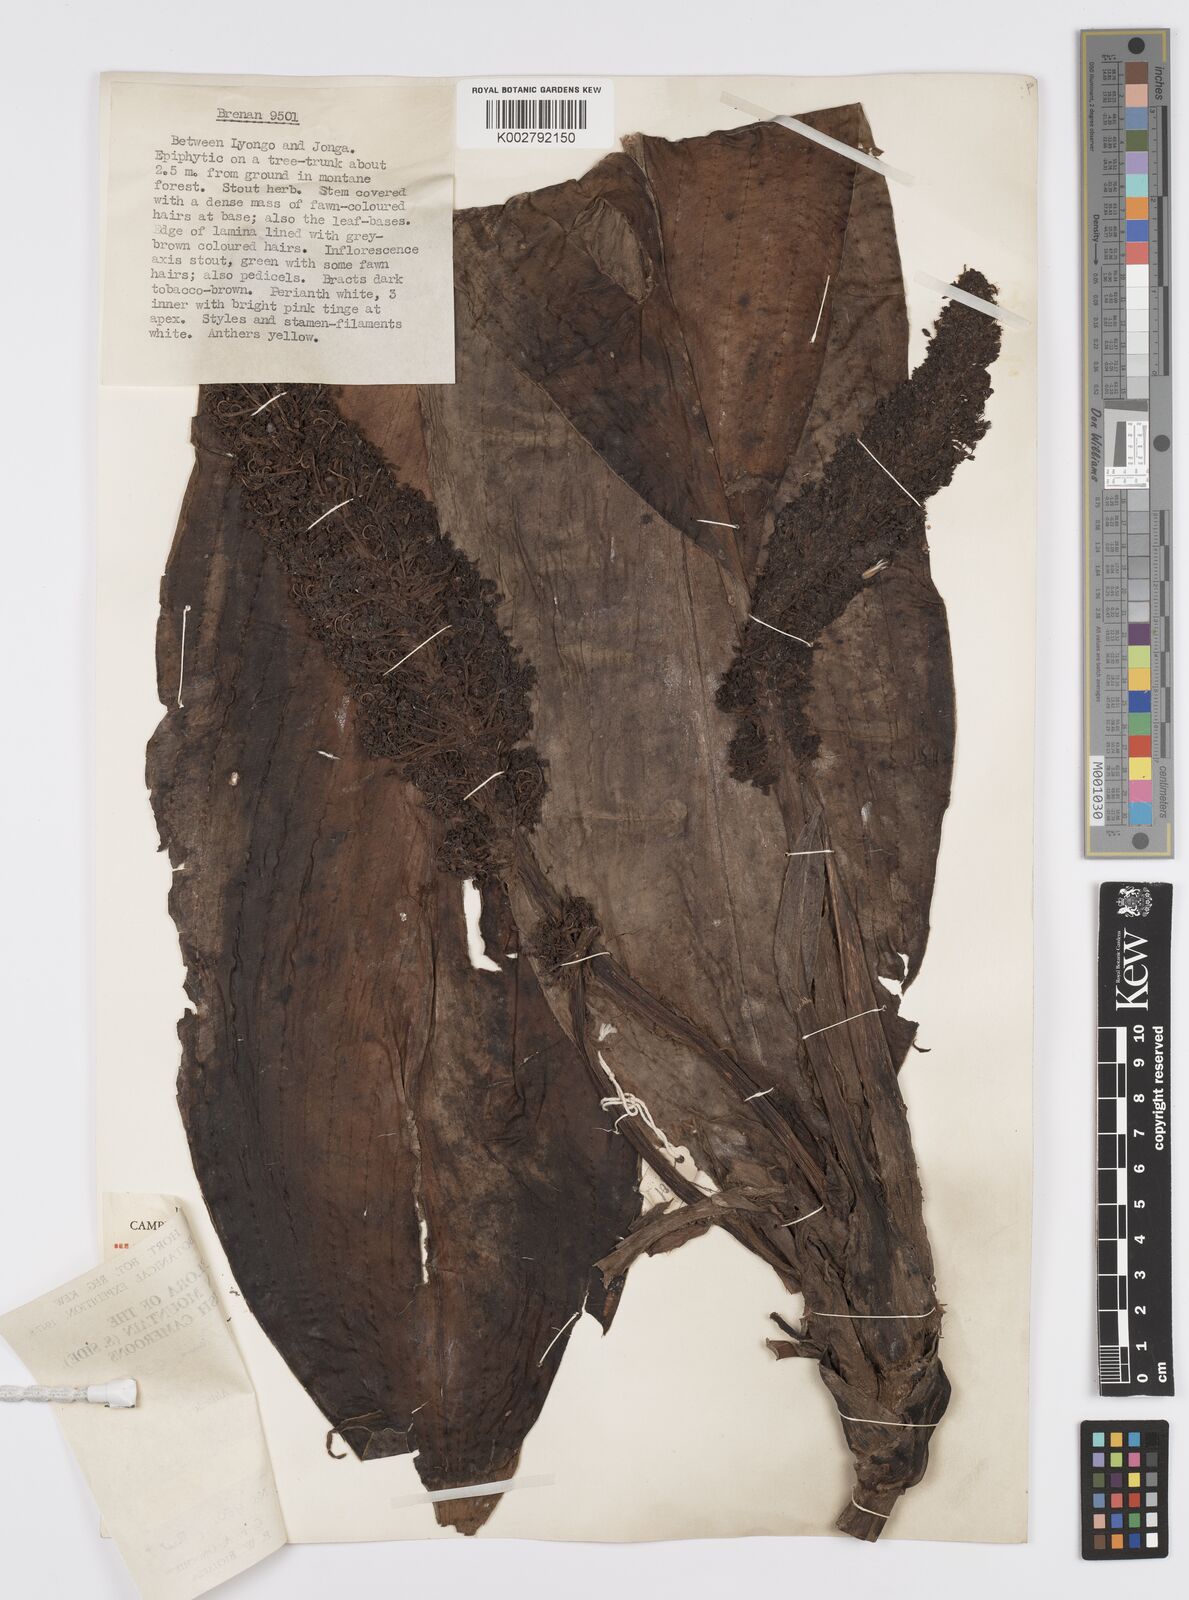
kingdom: Plantae
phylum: Tracheophyta
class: Liliopsida
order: Commelinales
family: Commelinaceae
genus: Palisota
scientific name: Palisota mannii
